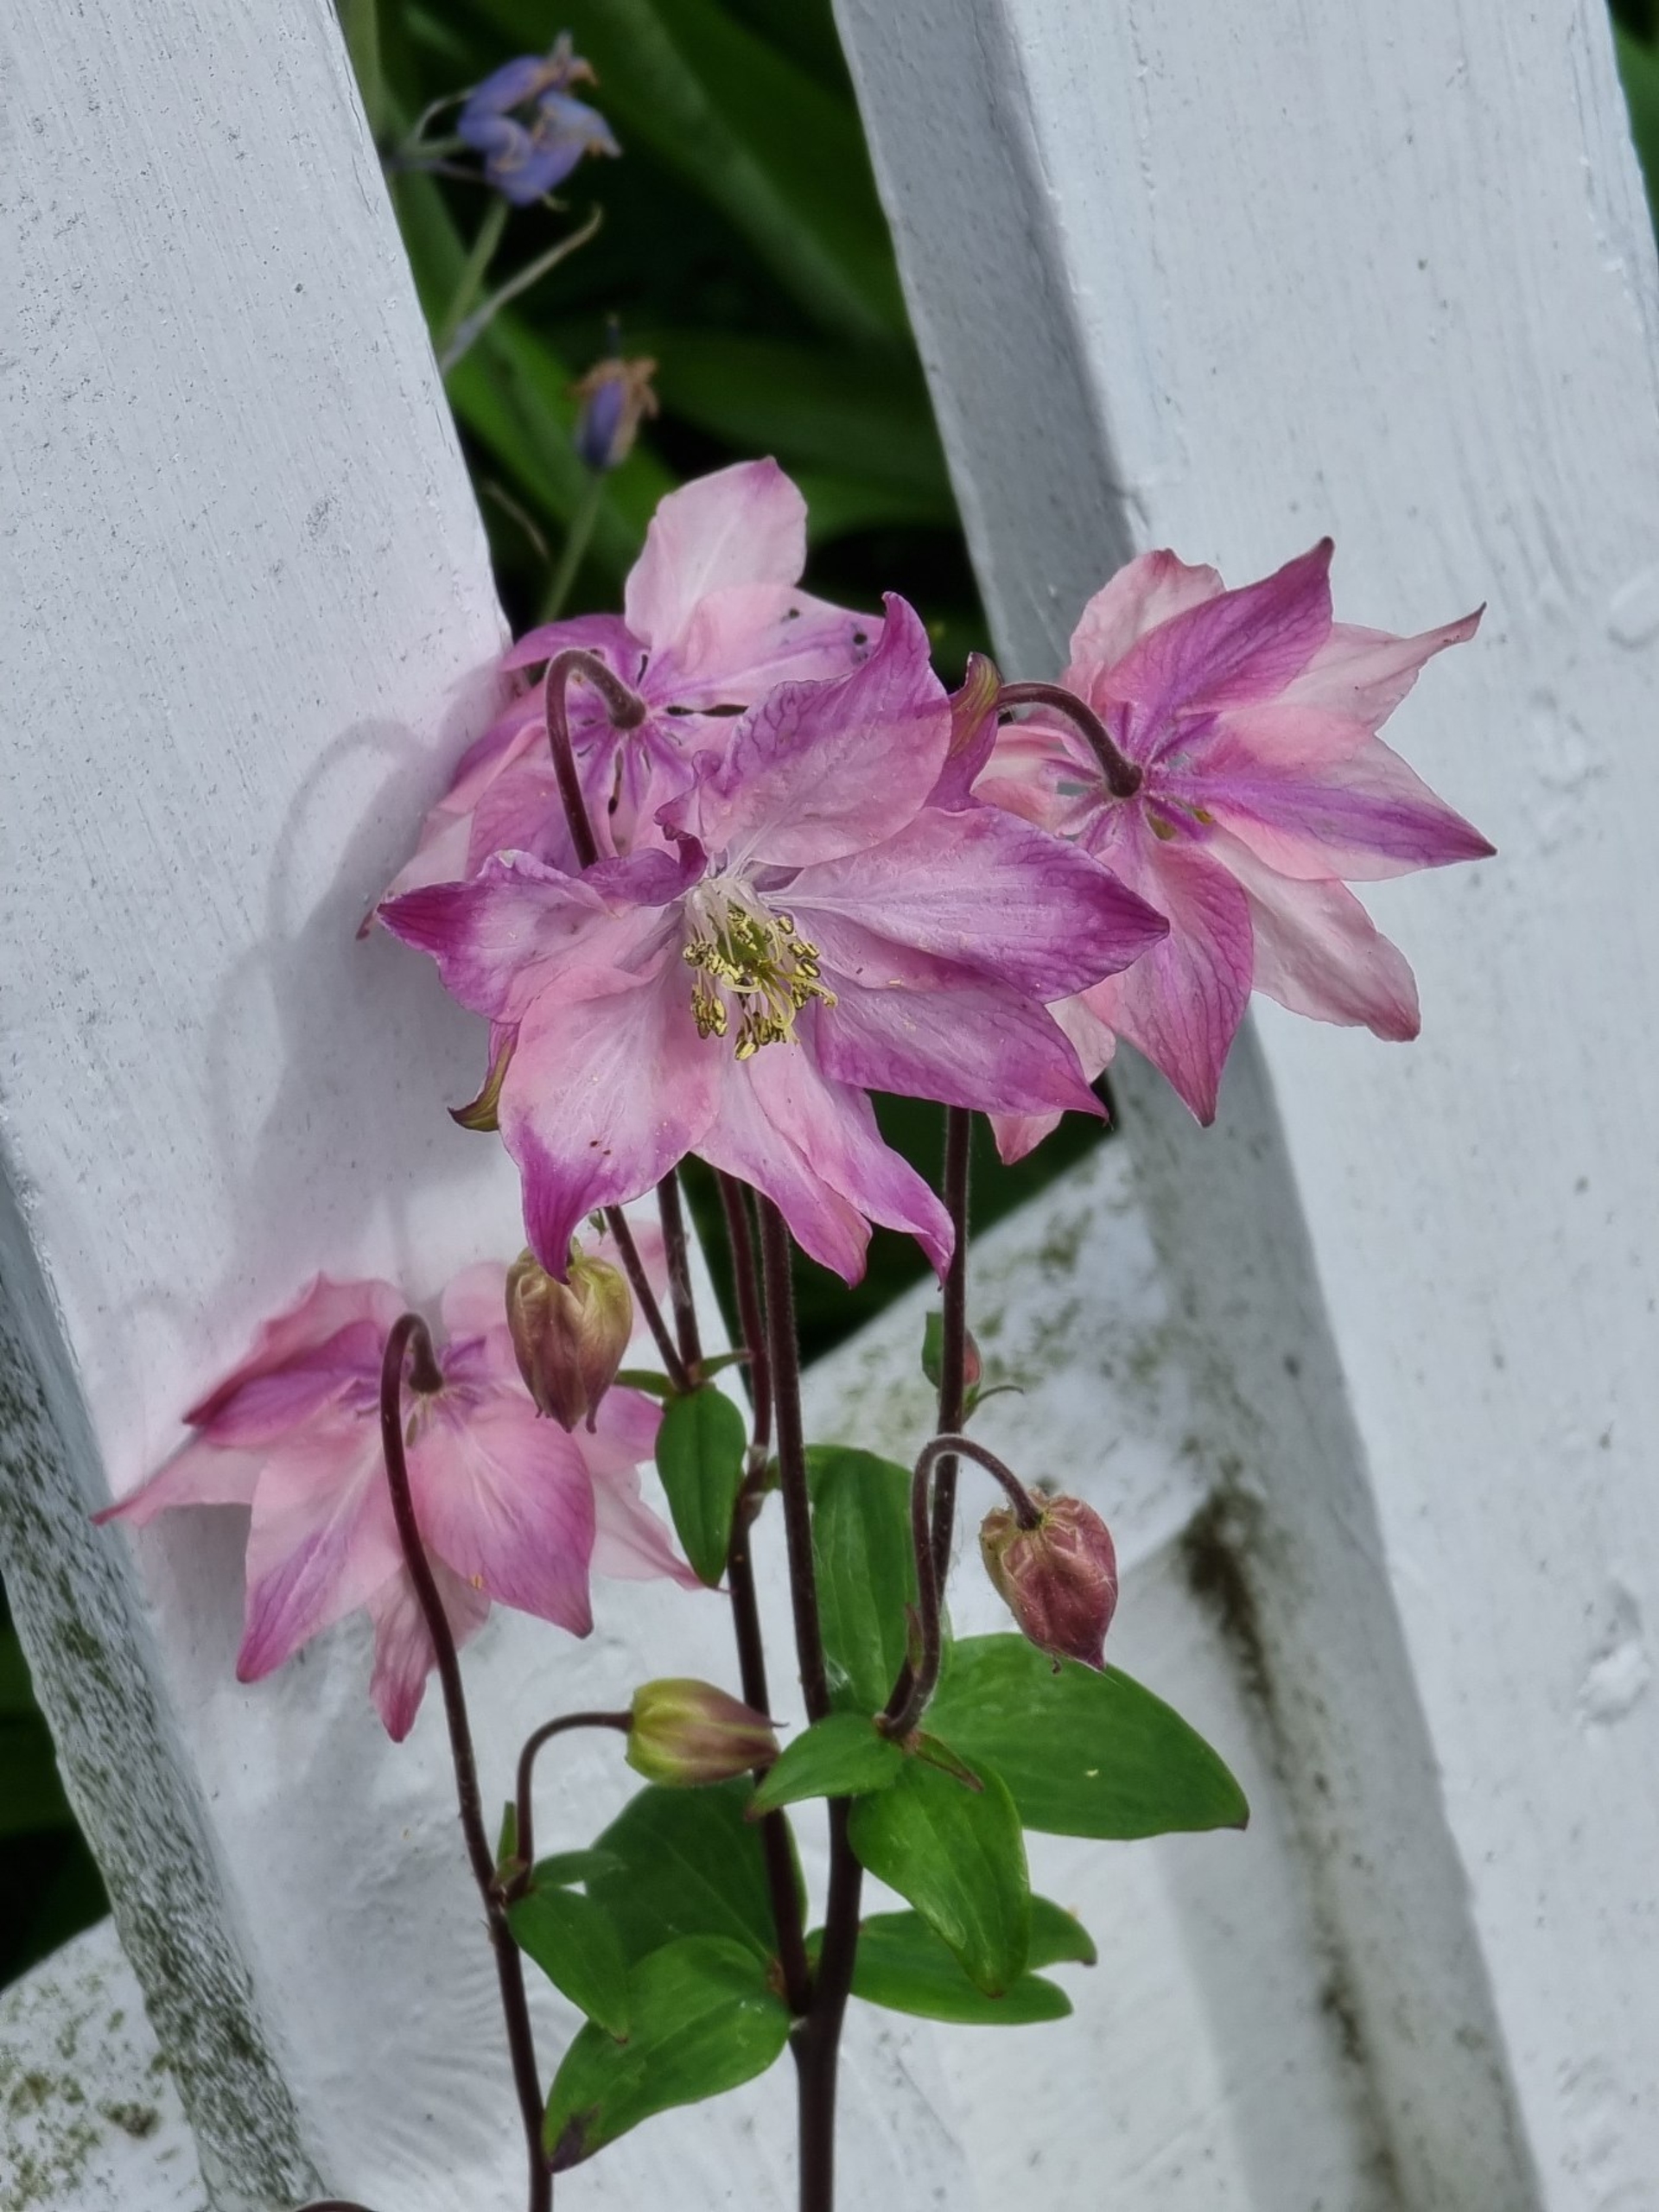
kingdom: Plantae
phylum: Tracheophyta
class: Magnoliopsida
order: Ranunculales
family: Ranunculaceae
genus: Aquilegia
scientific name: Aquilegia vulgaris
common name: Akeleje
